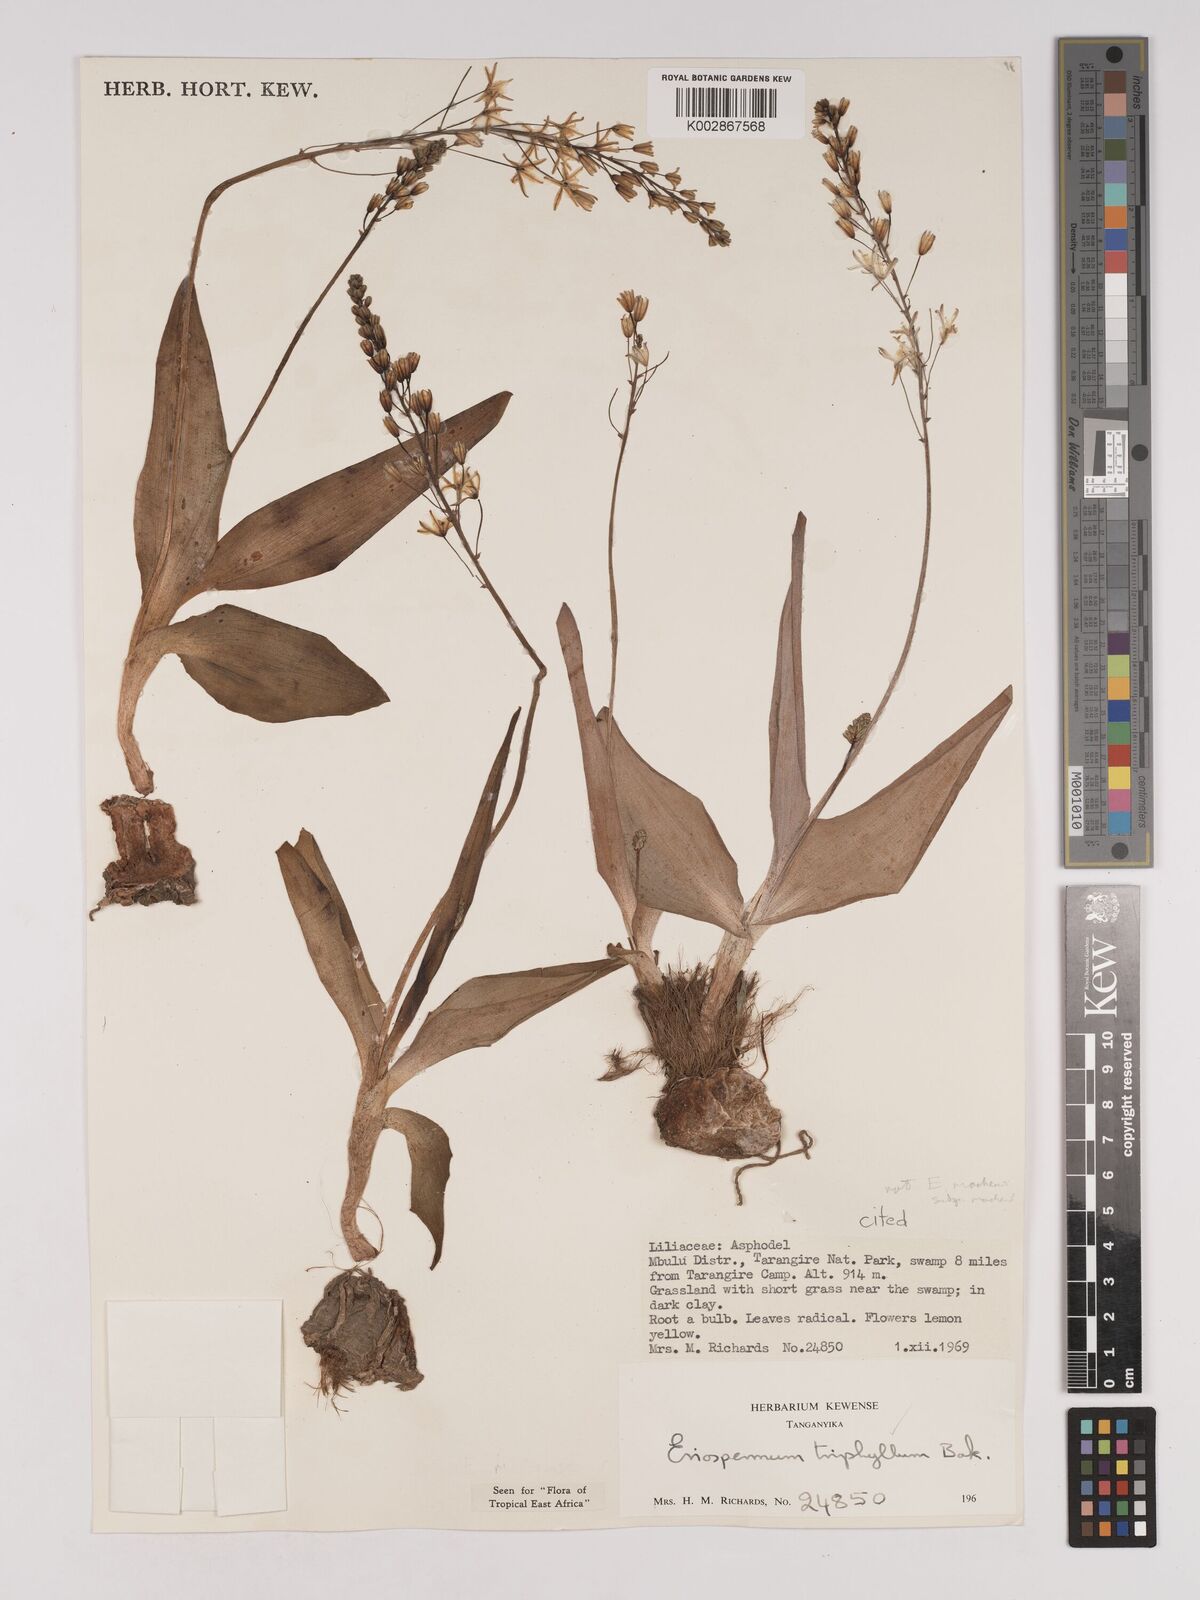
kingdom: Plantae
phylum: Tracheophyta
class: Liliopsida
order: Asparagales
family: Asparagaceae
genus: Eriospermum
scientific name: Eriospermum triphyllum
